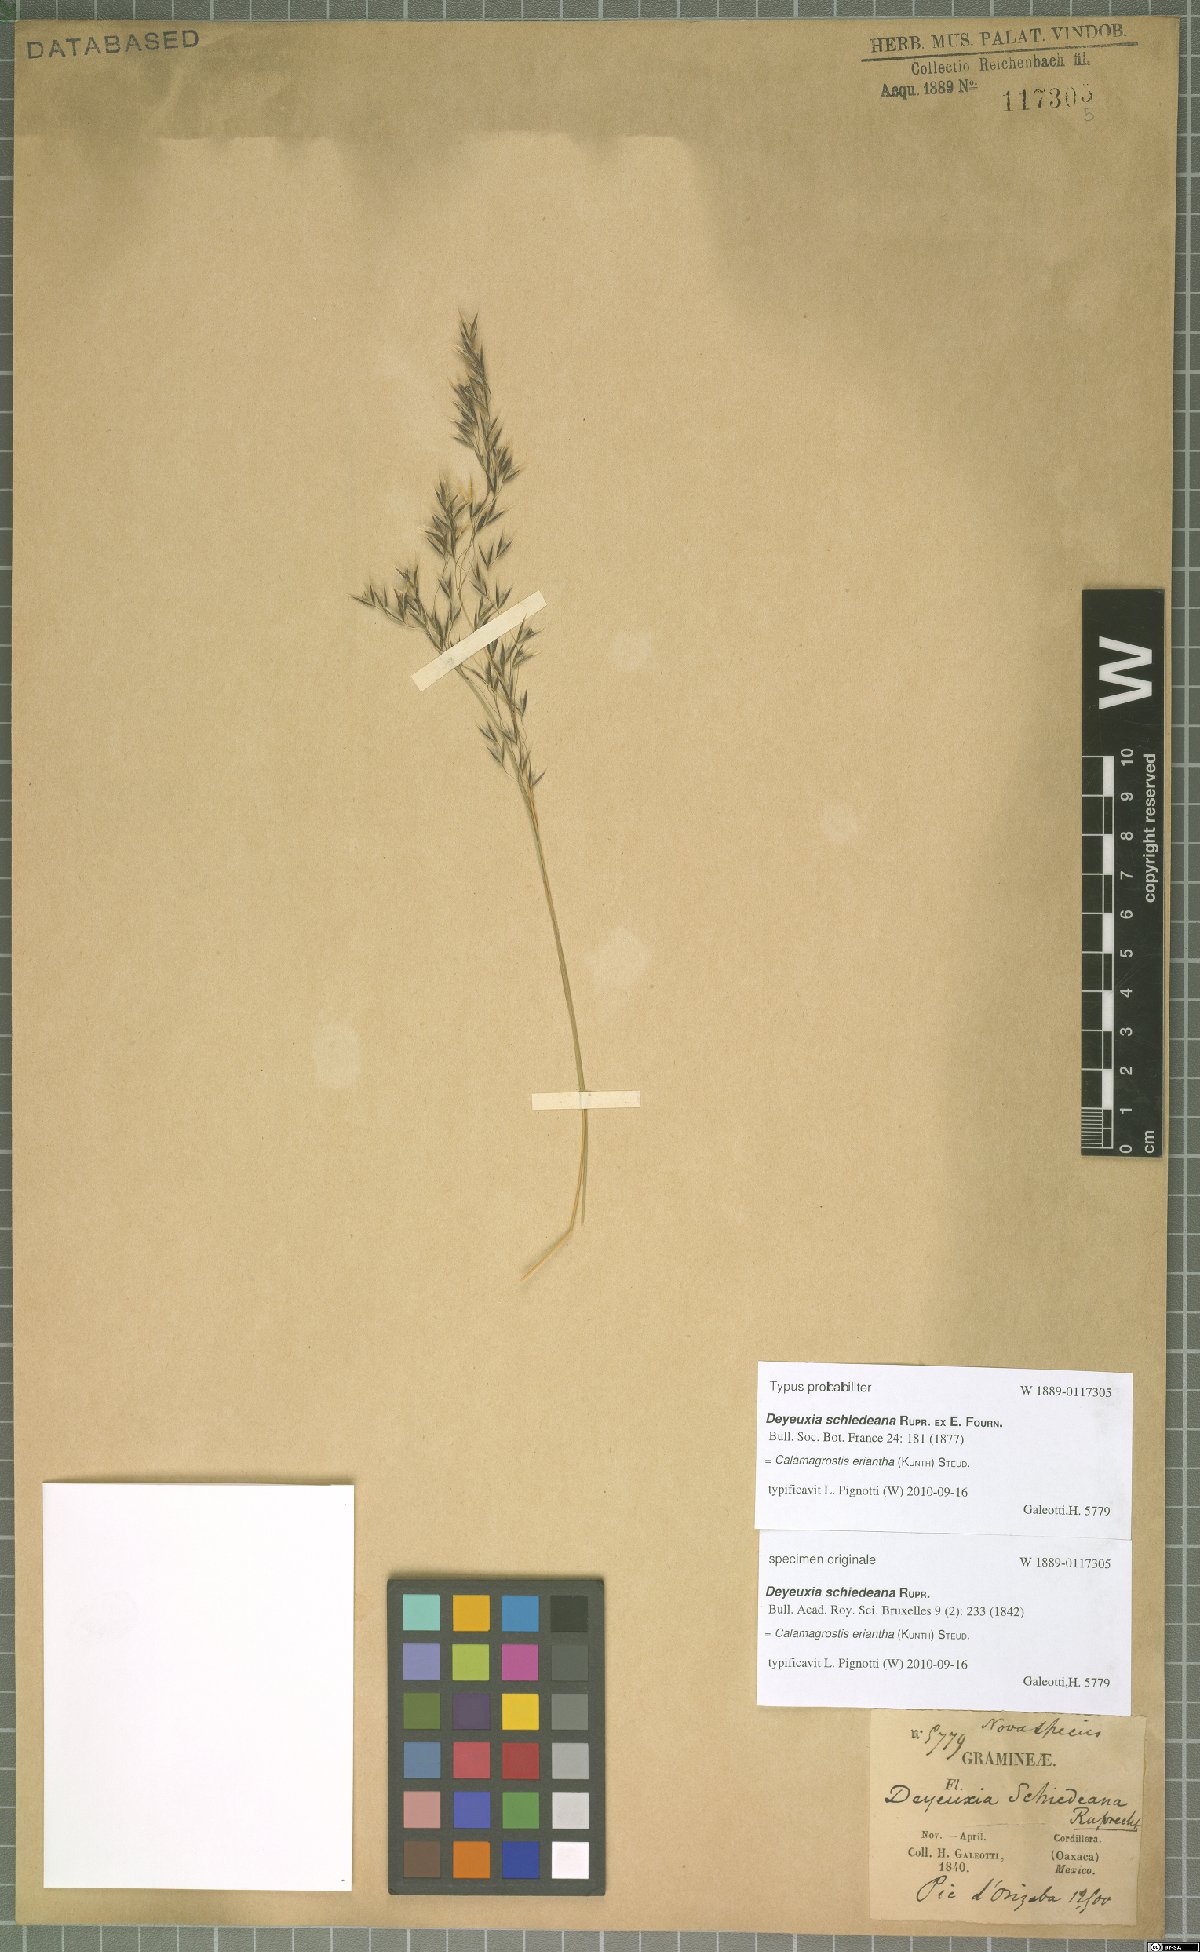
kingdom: Plantae
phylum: Tracheophyta
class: Liliopsida
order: Poales
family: Poaceae
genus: Peyritschia
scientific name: Peyritschia eriantha
